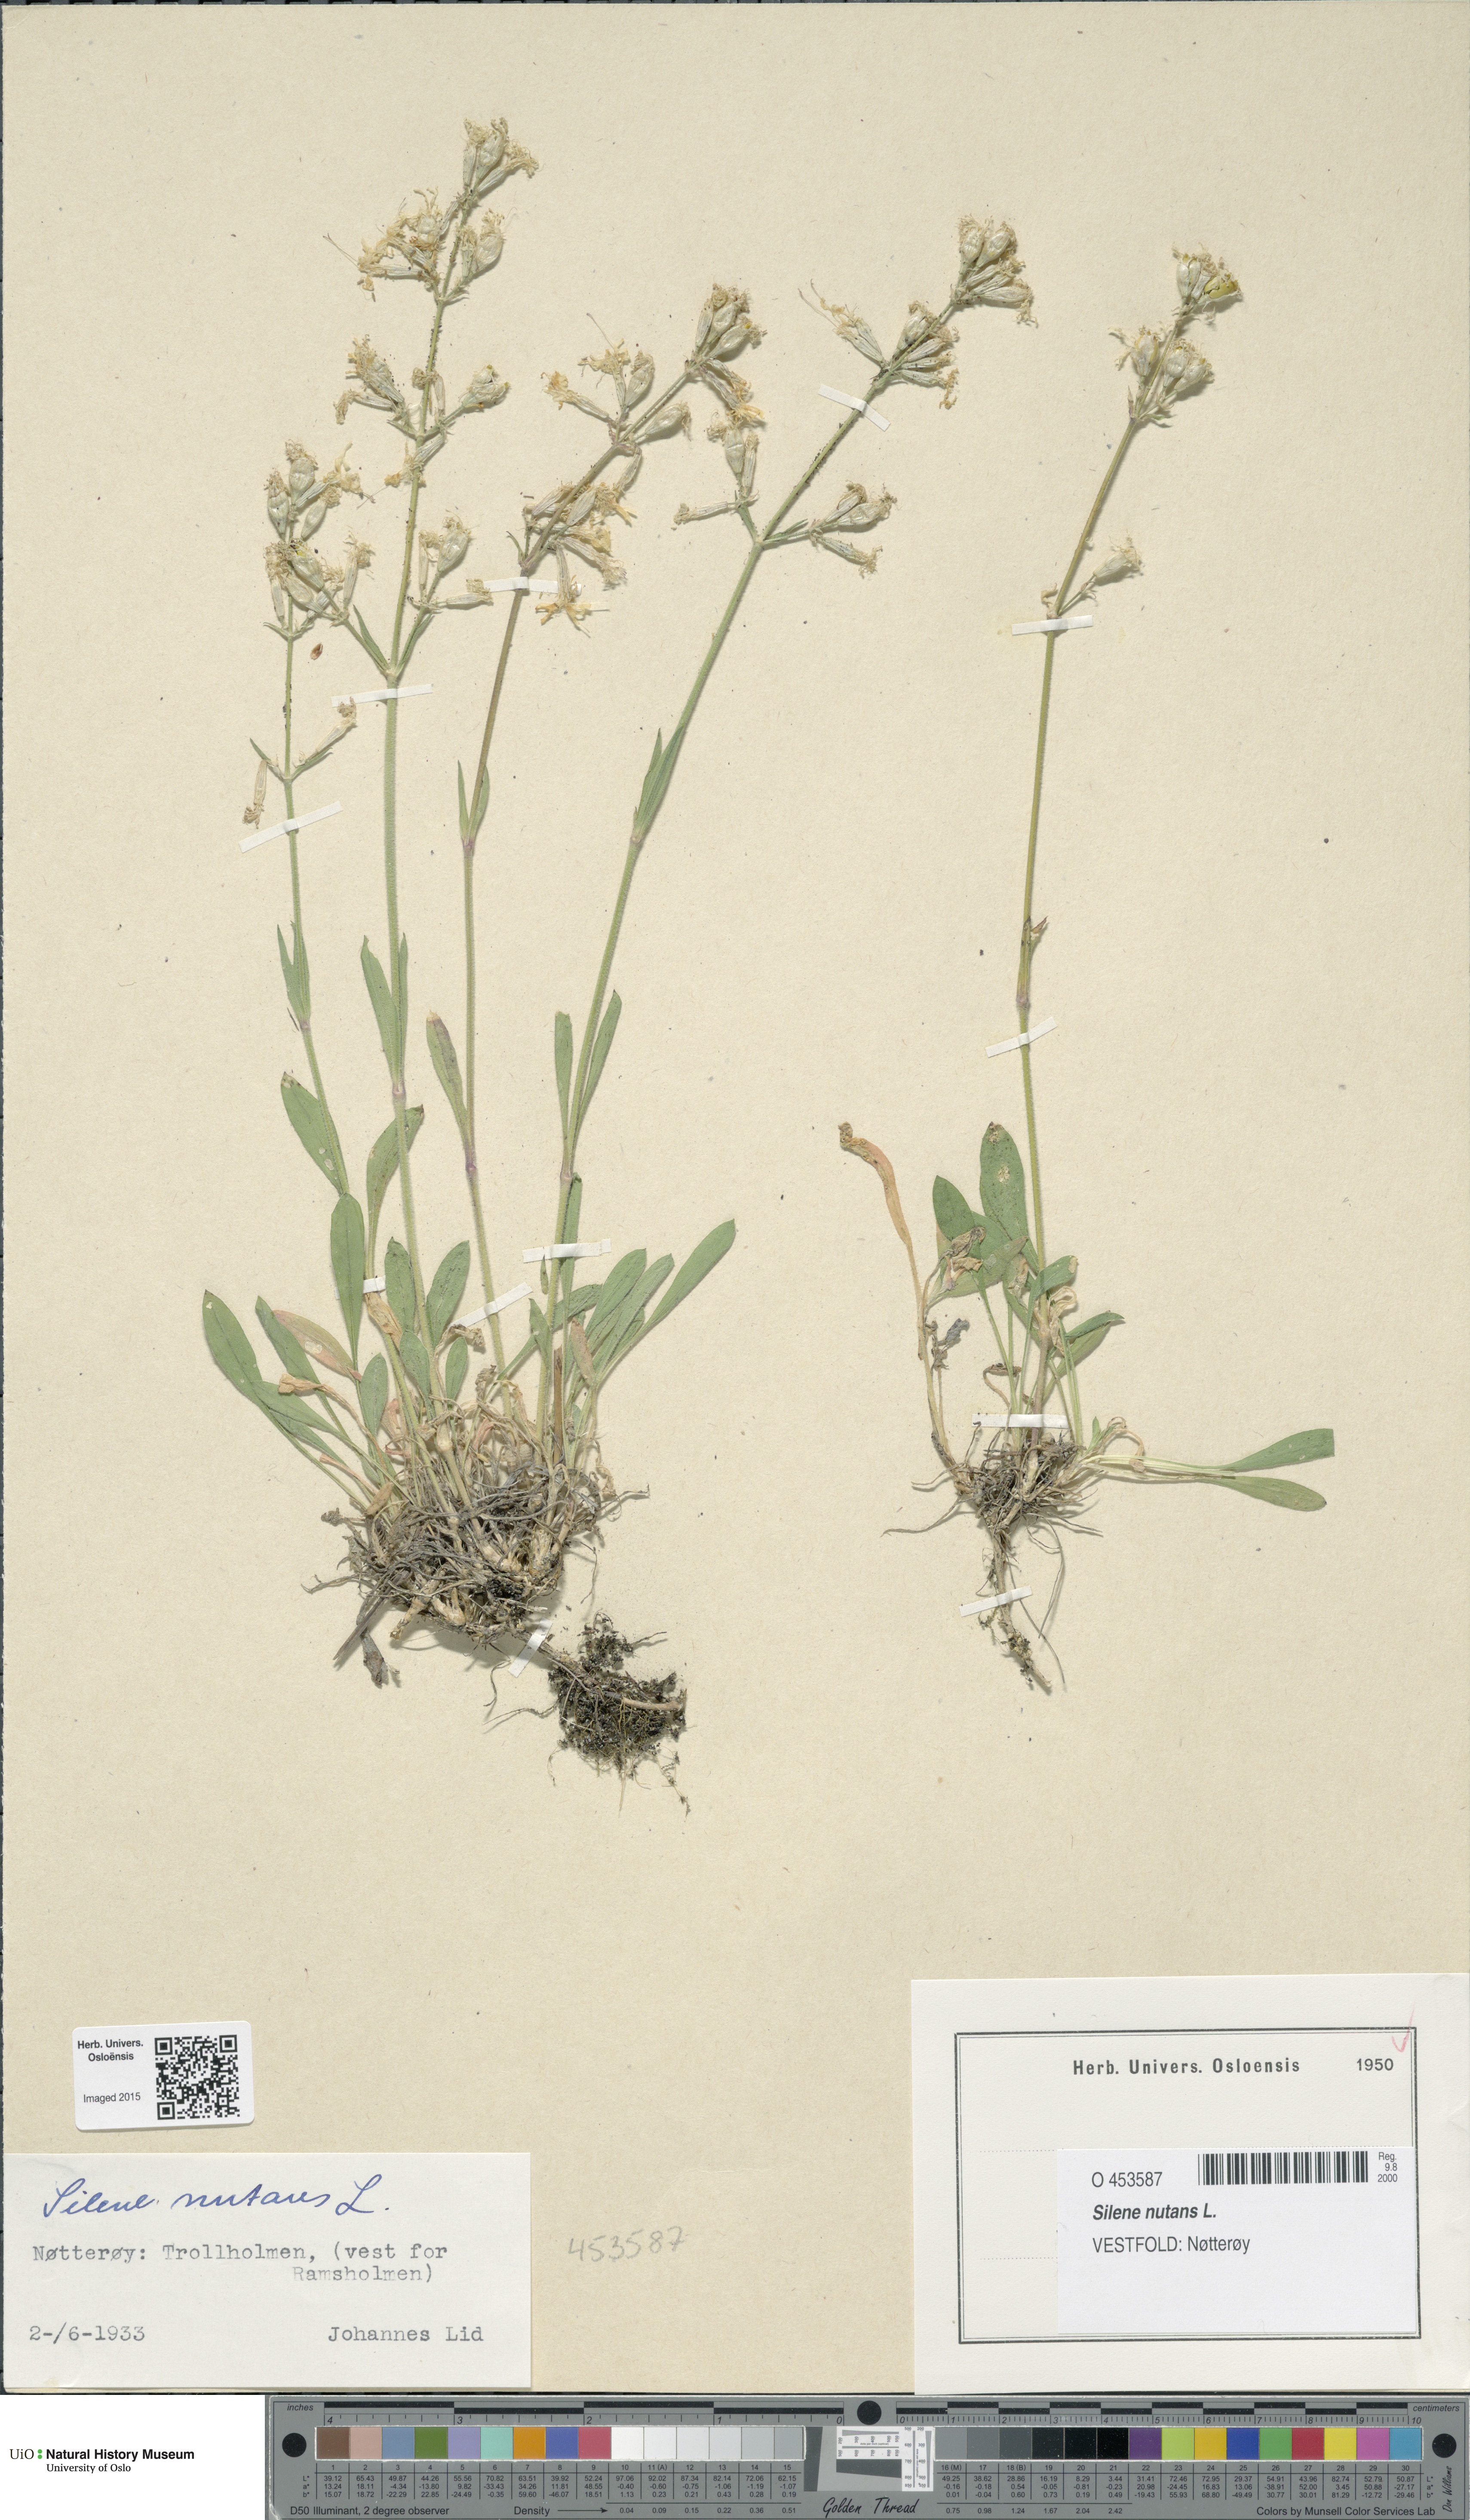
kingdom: Plantae
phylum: Tracheophyta
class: Magnoliopsida
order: Caryophyllales
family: Caryophyllaceae
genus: Silene
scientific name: Silene nutans
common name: Nottingham catchfly
